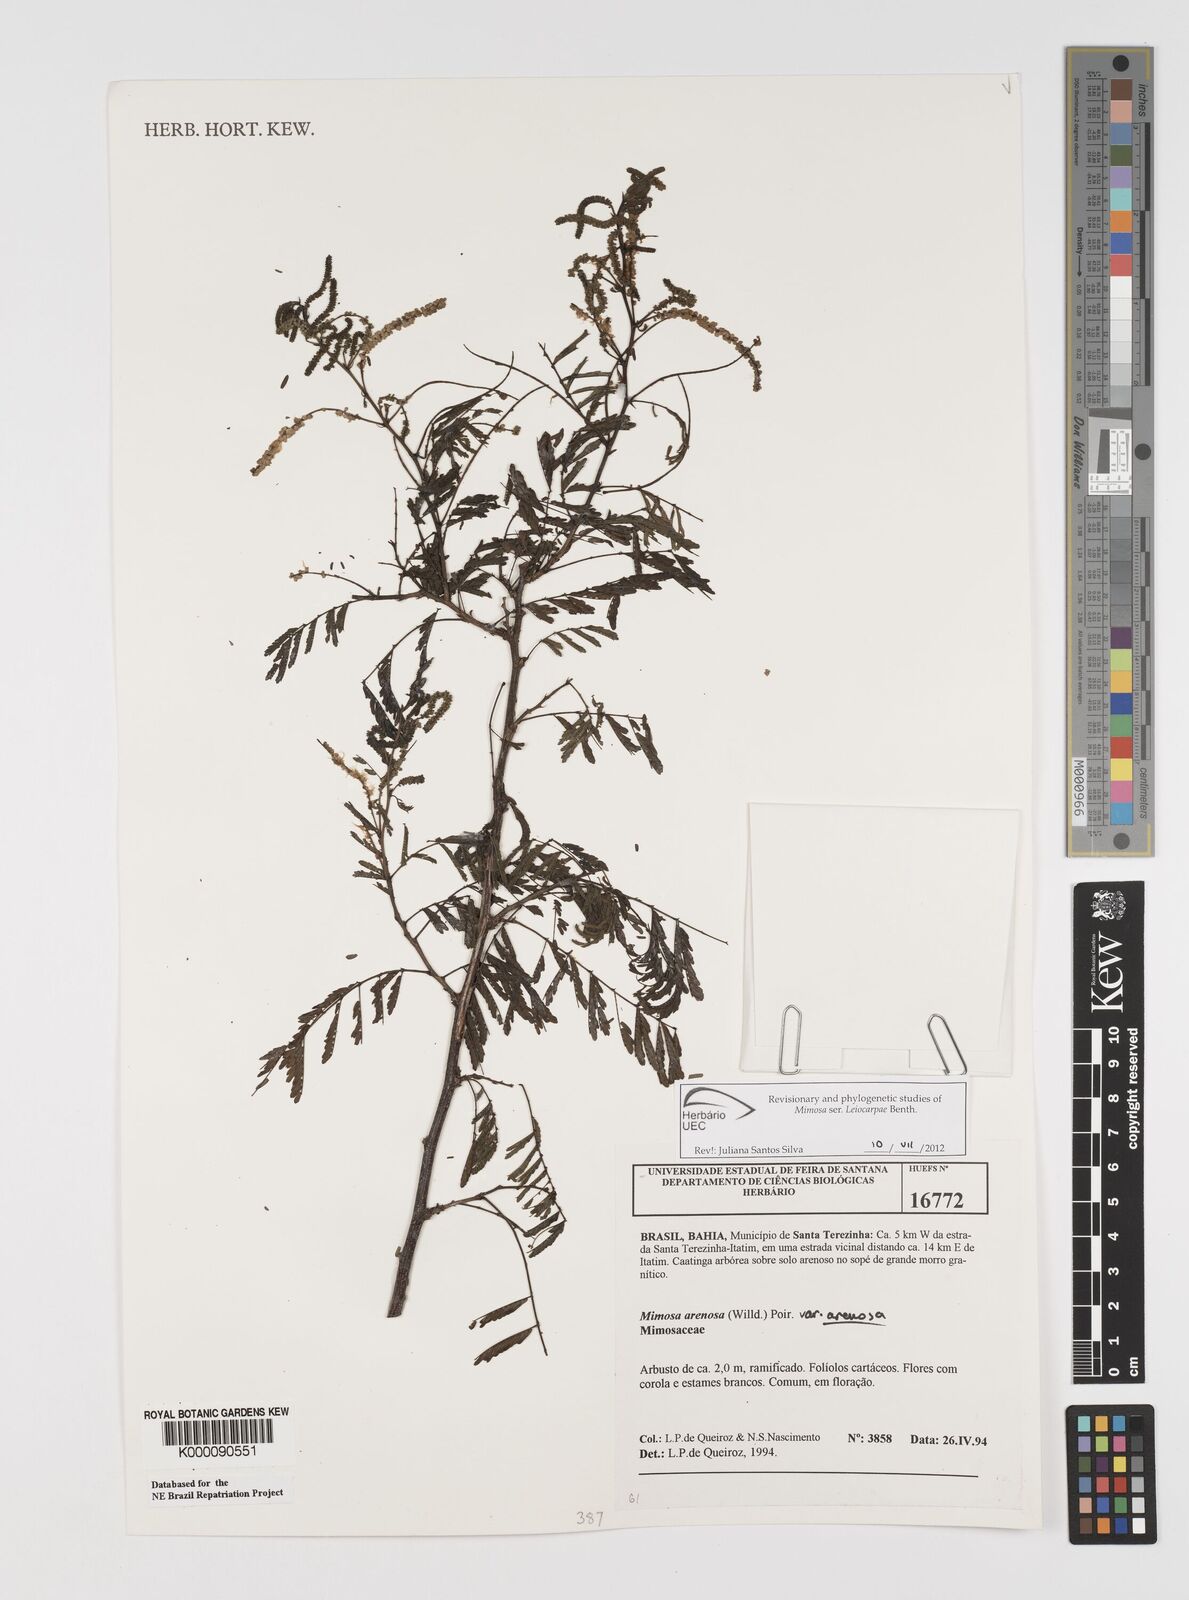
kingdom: Plantae
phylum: Tracheophyta
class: Magnoliopsida
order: Fabales
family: Fabaceae
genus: Mimosa
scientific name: Mimosa arenosa
